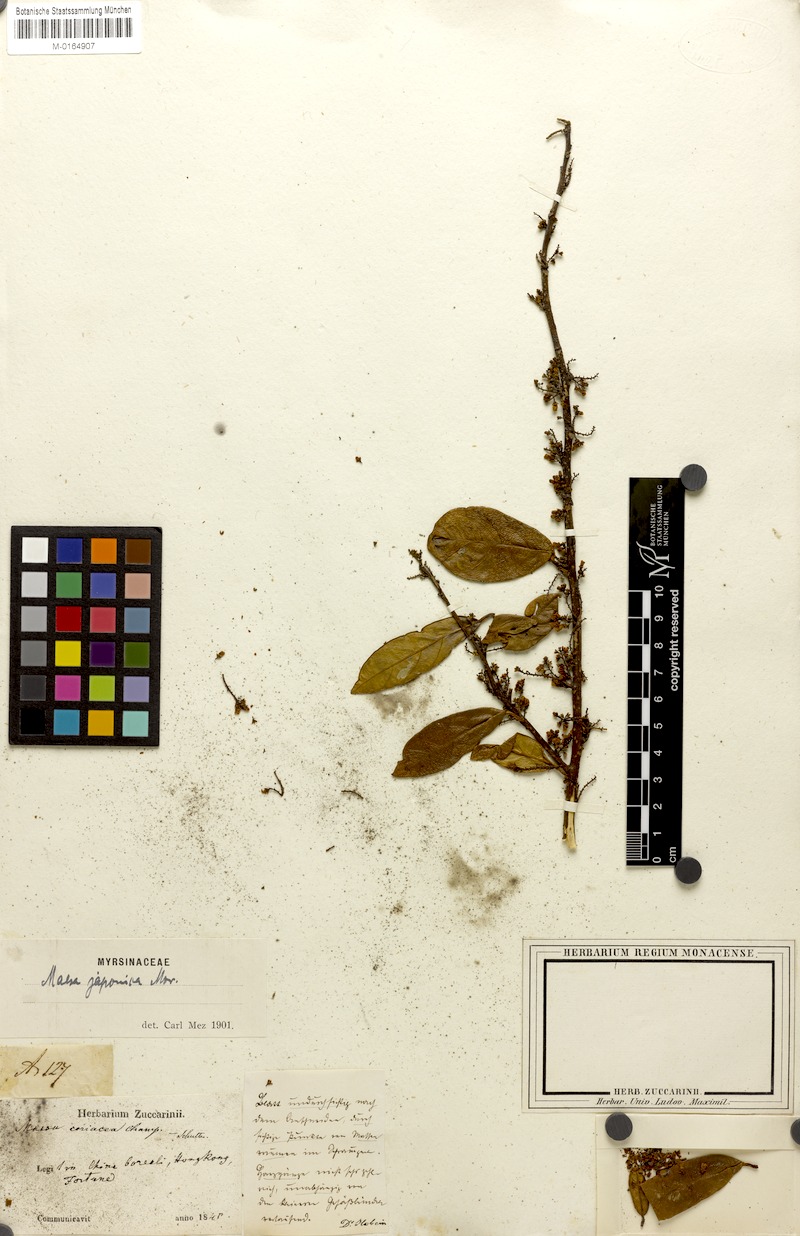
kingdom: Plantae
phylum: Tracheophyta
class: Magnoliopsida
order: Ericales
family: Primulaceae
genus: Maesa
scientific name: Maesa japonica
